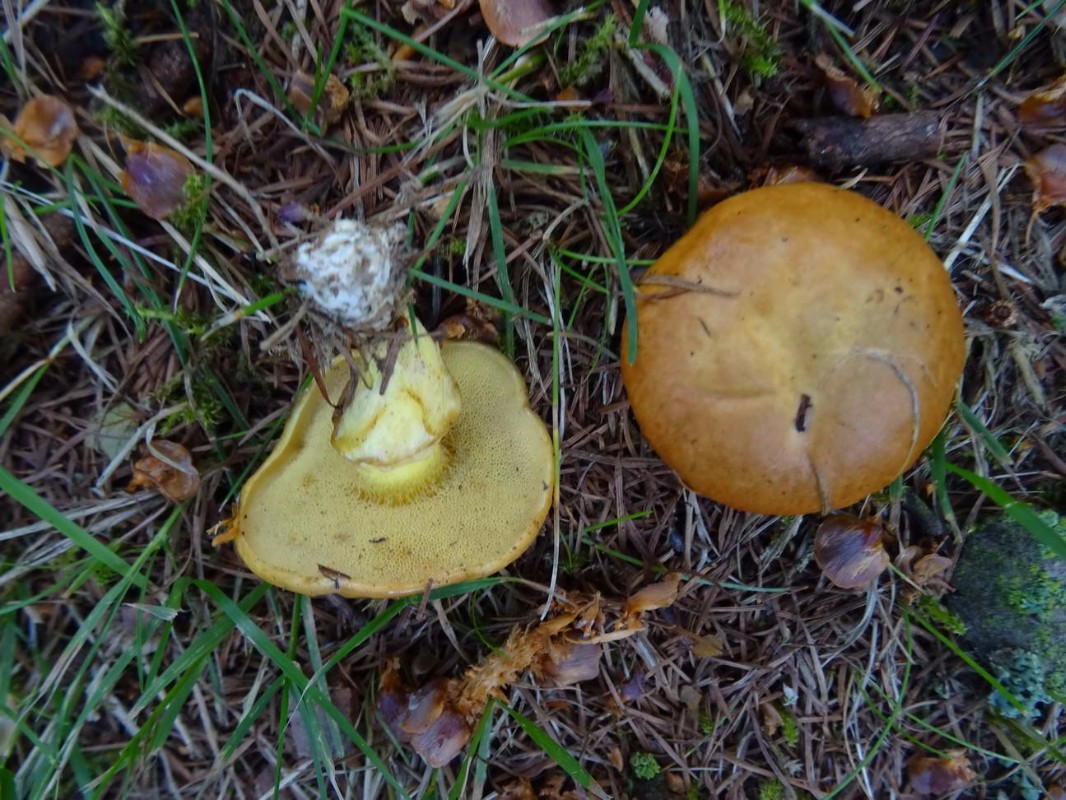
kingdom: Fungi
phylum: Basidiomycota
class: Agaricomycetes
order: Boletales
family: Suillaceae
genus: Suillus
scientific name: Suillus grevillei
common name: lærke-slimrørhat
